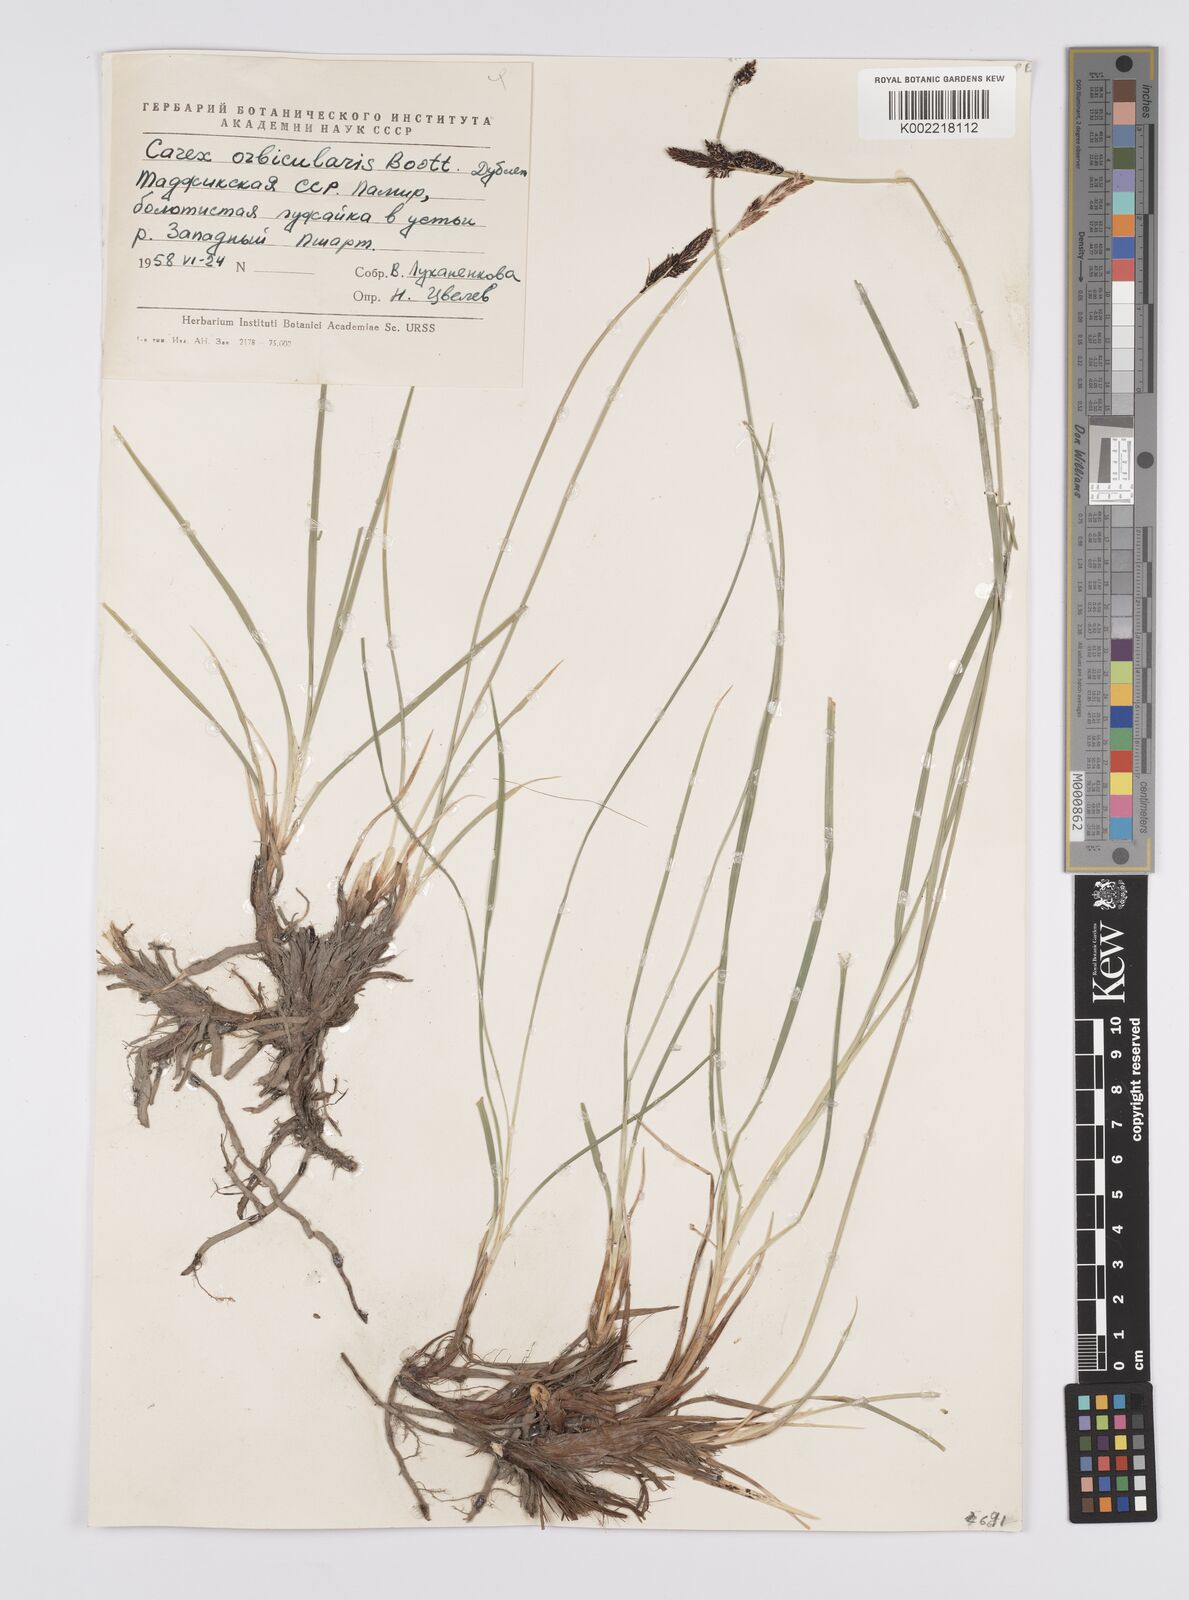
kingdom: Plantae
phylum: Tracheophyta
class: Liliopsida
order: Poales
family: Cyperaceae
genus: Carex
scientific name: Carex orbicularis
